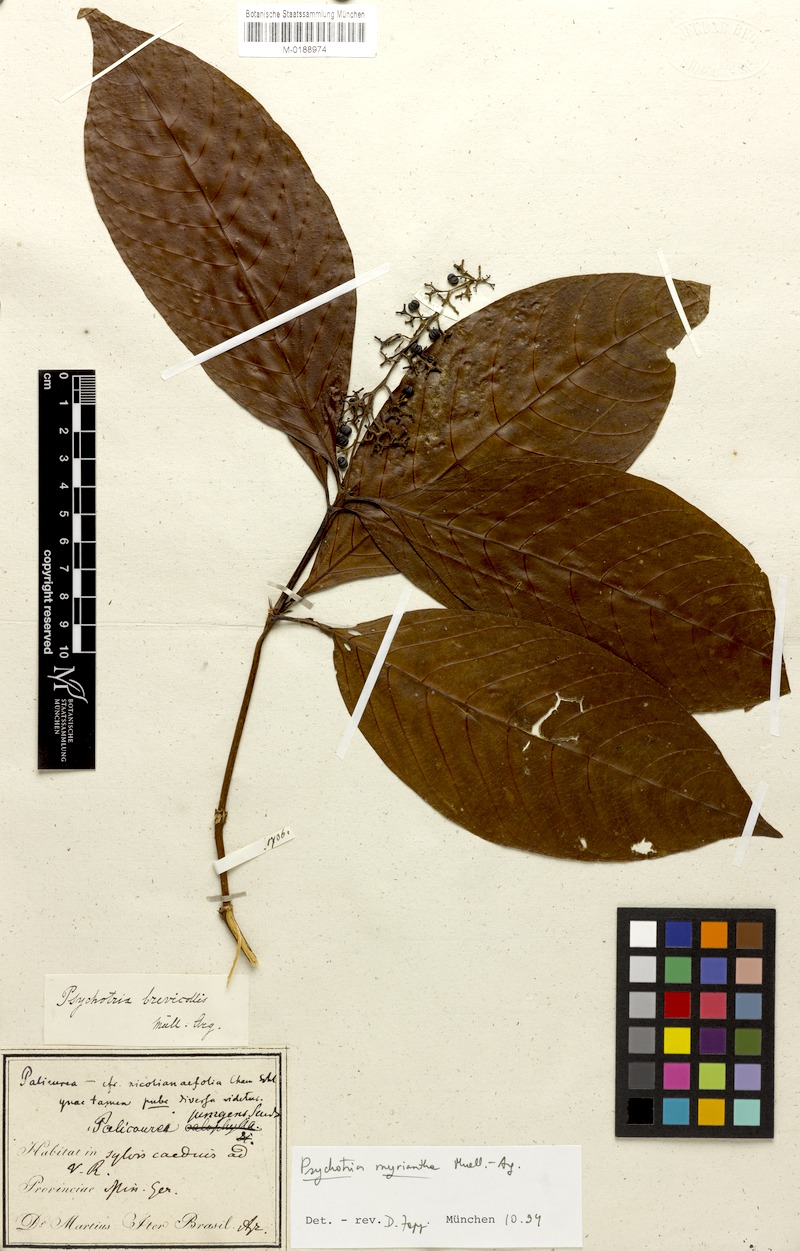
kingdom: Plantae
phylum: Tracheophyta
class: Magnoliopsida
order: Gentianales
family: Rubiaceae
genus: Palicourea
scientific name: Palicourea mamillaris
